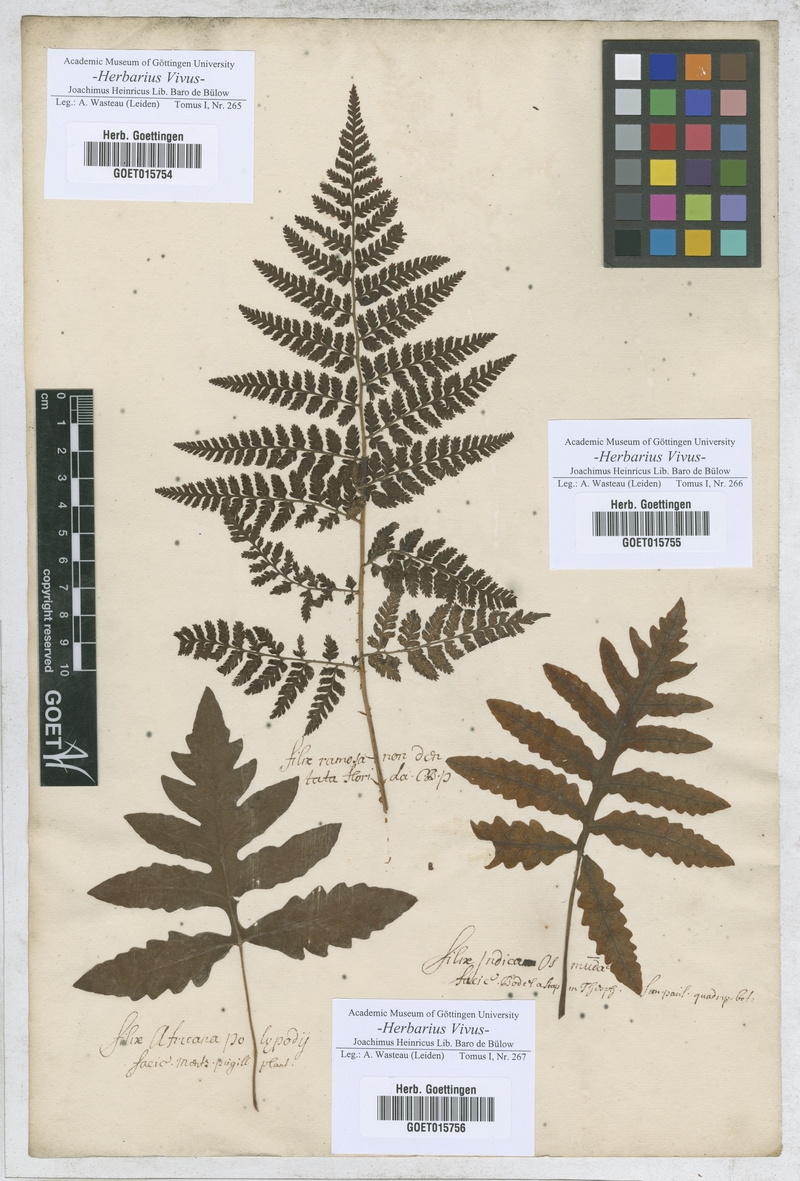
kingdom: Plantae
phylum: Tracheophyta
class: Polypodiopsida
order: Osmundales
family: Osmundaceae
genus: Osmunda
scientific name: Osmunda regalis
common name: Royal fern
